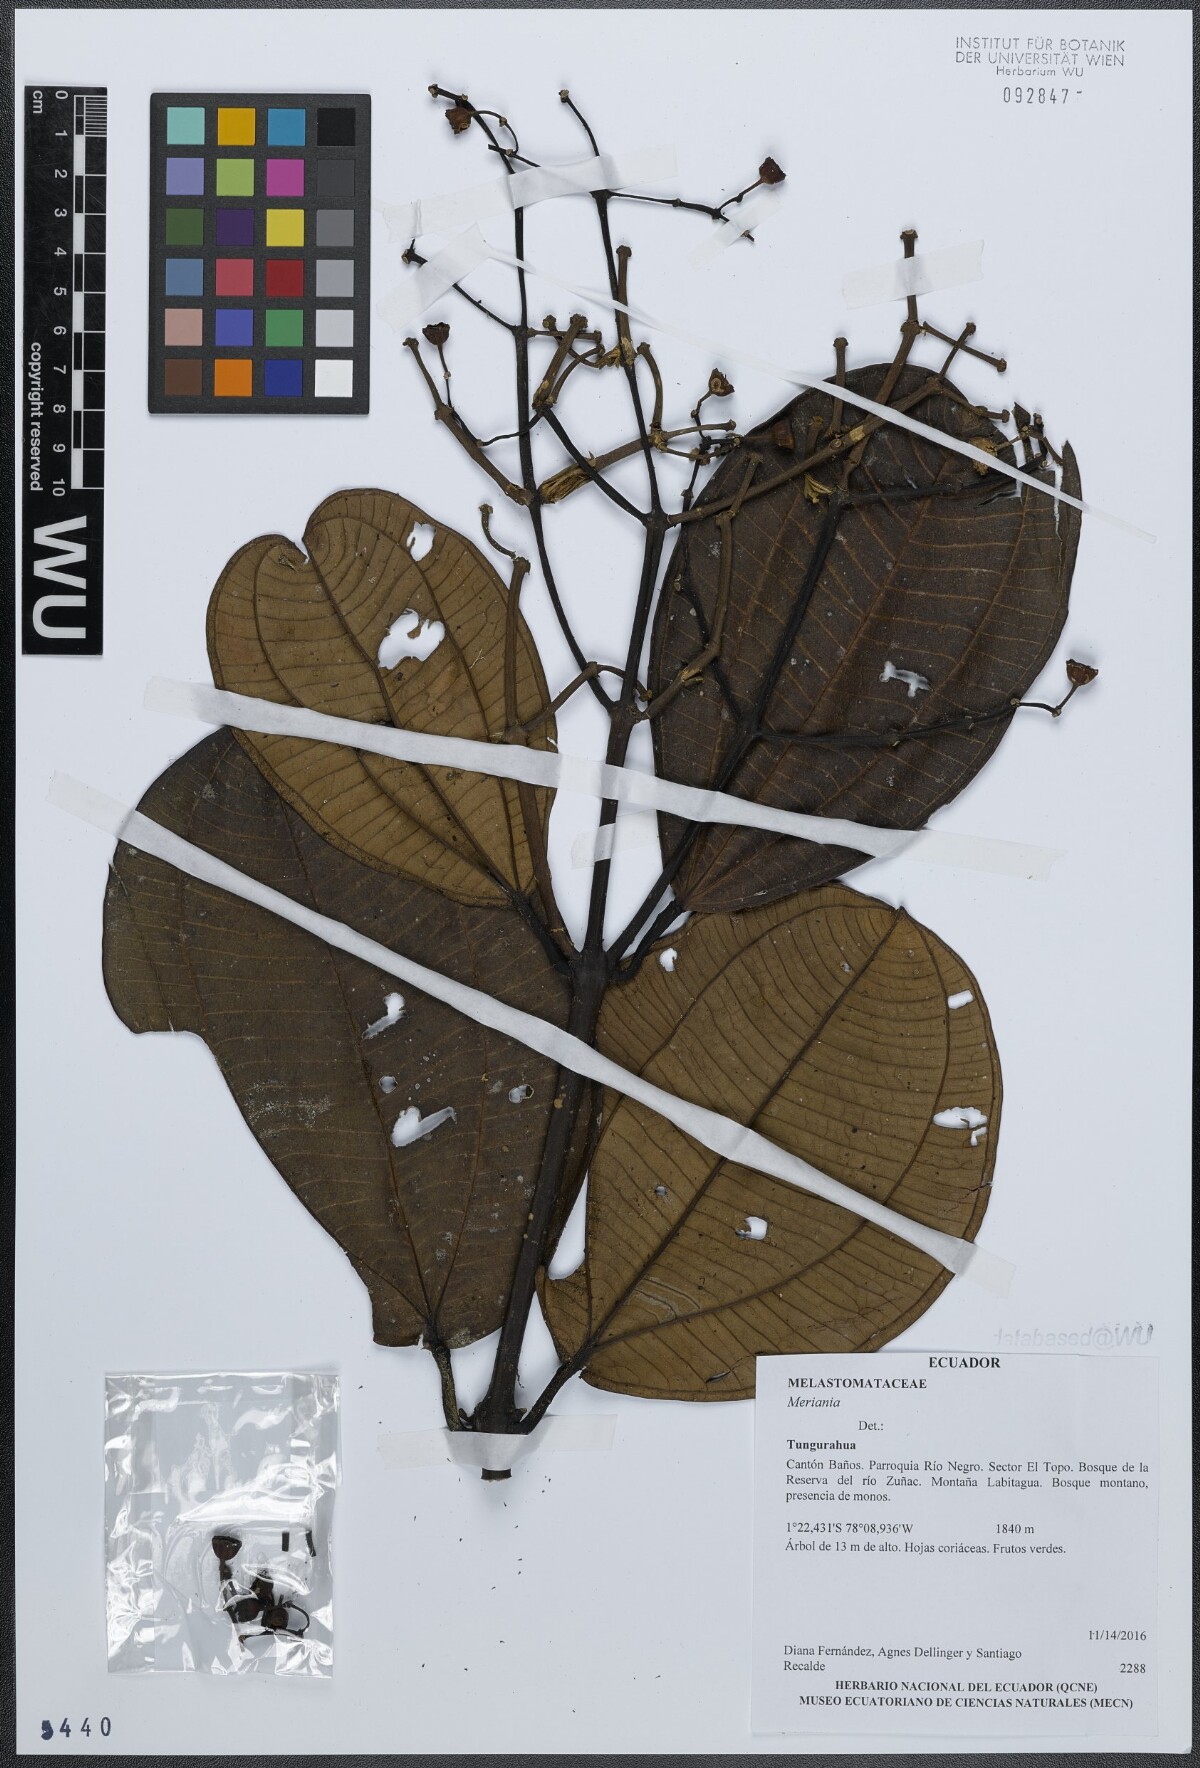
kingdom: Plantae
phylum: Tracheophyta
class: Magnoliopsida
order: Myrtales
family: Melastomataceae
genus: Meriania
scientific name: Meriania
